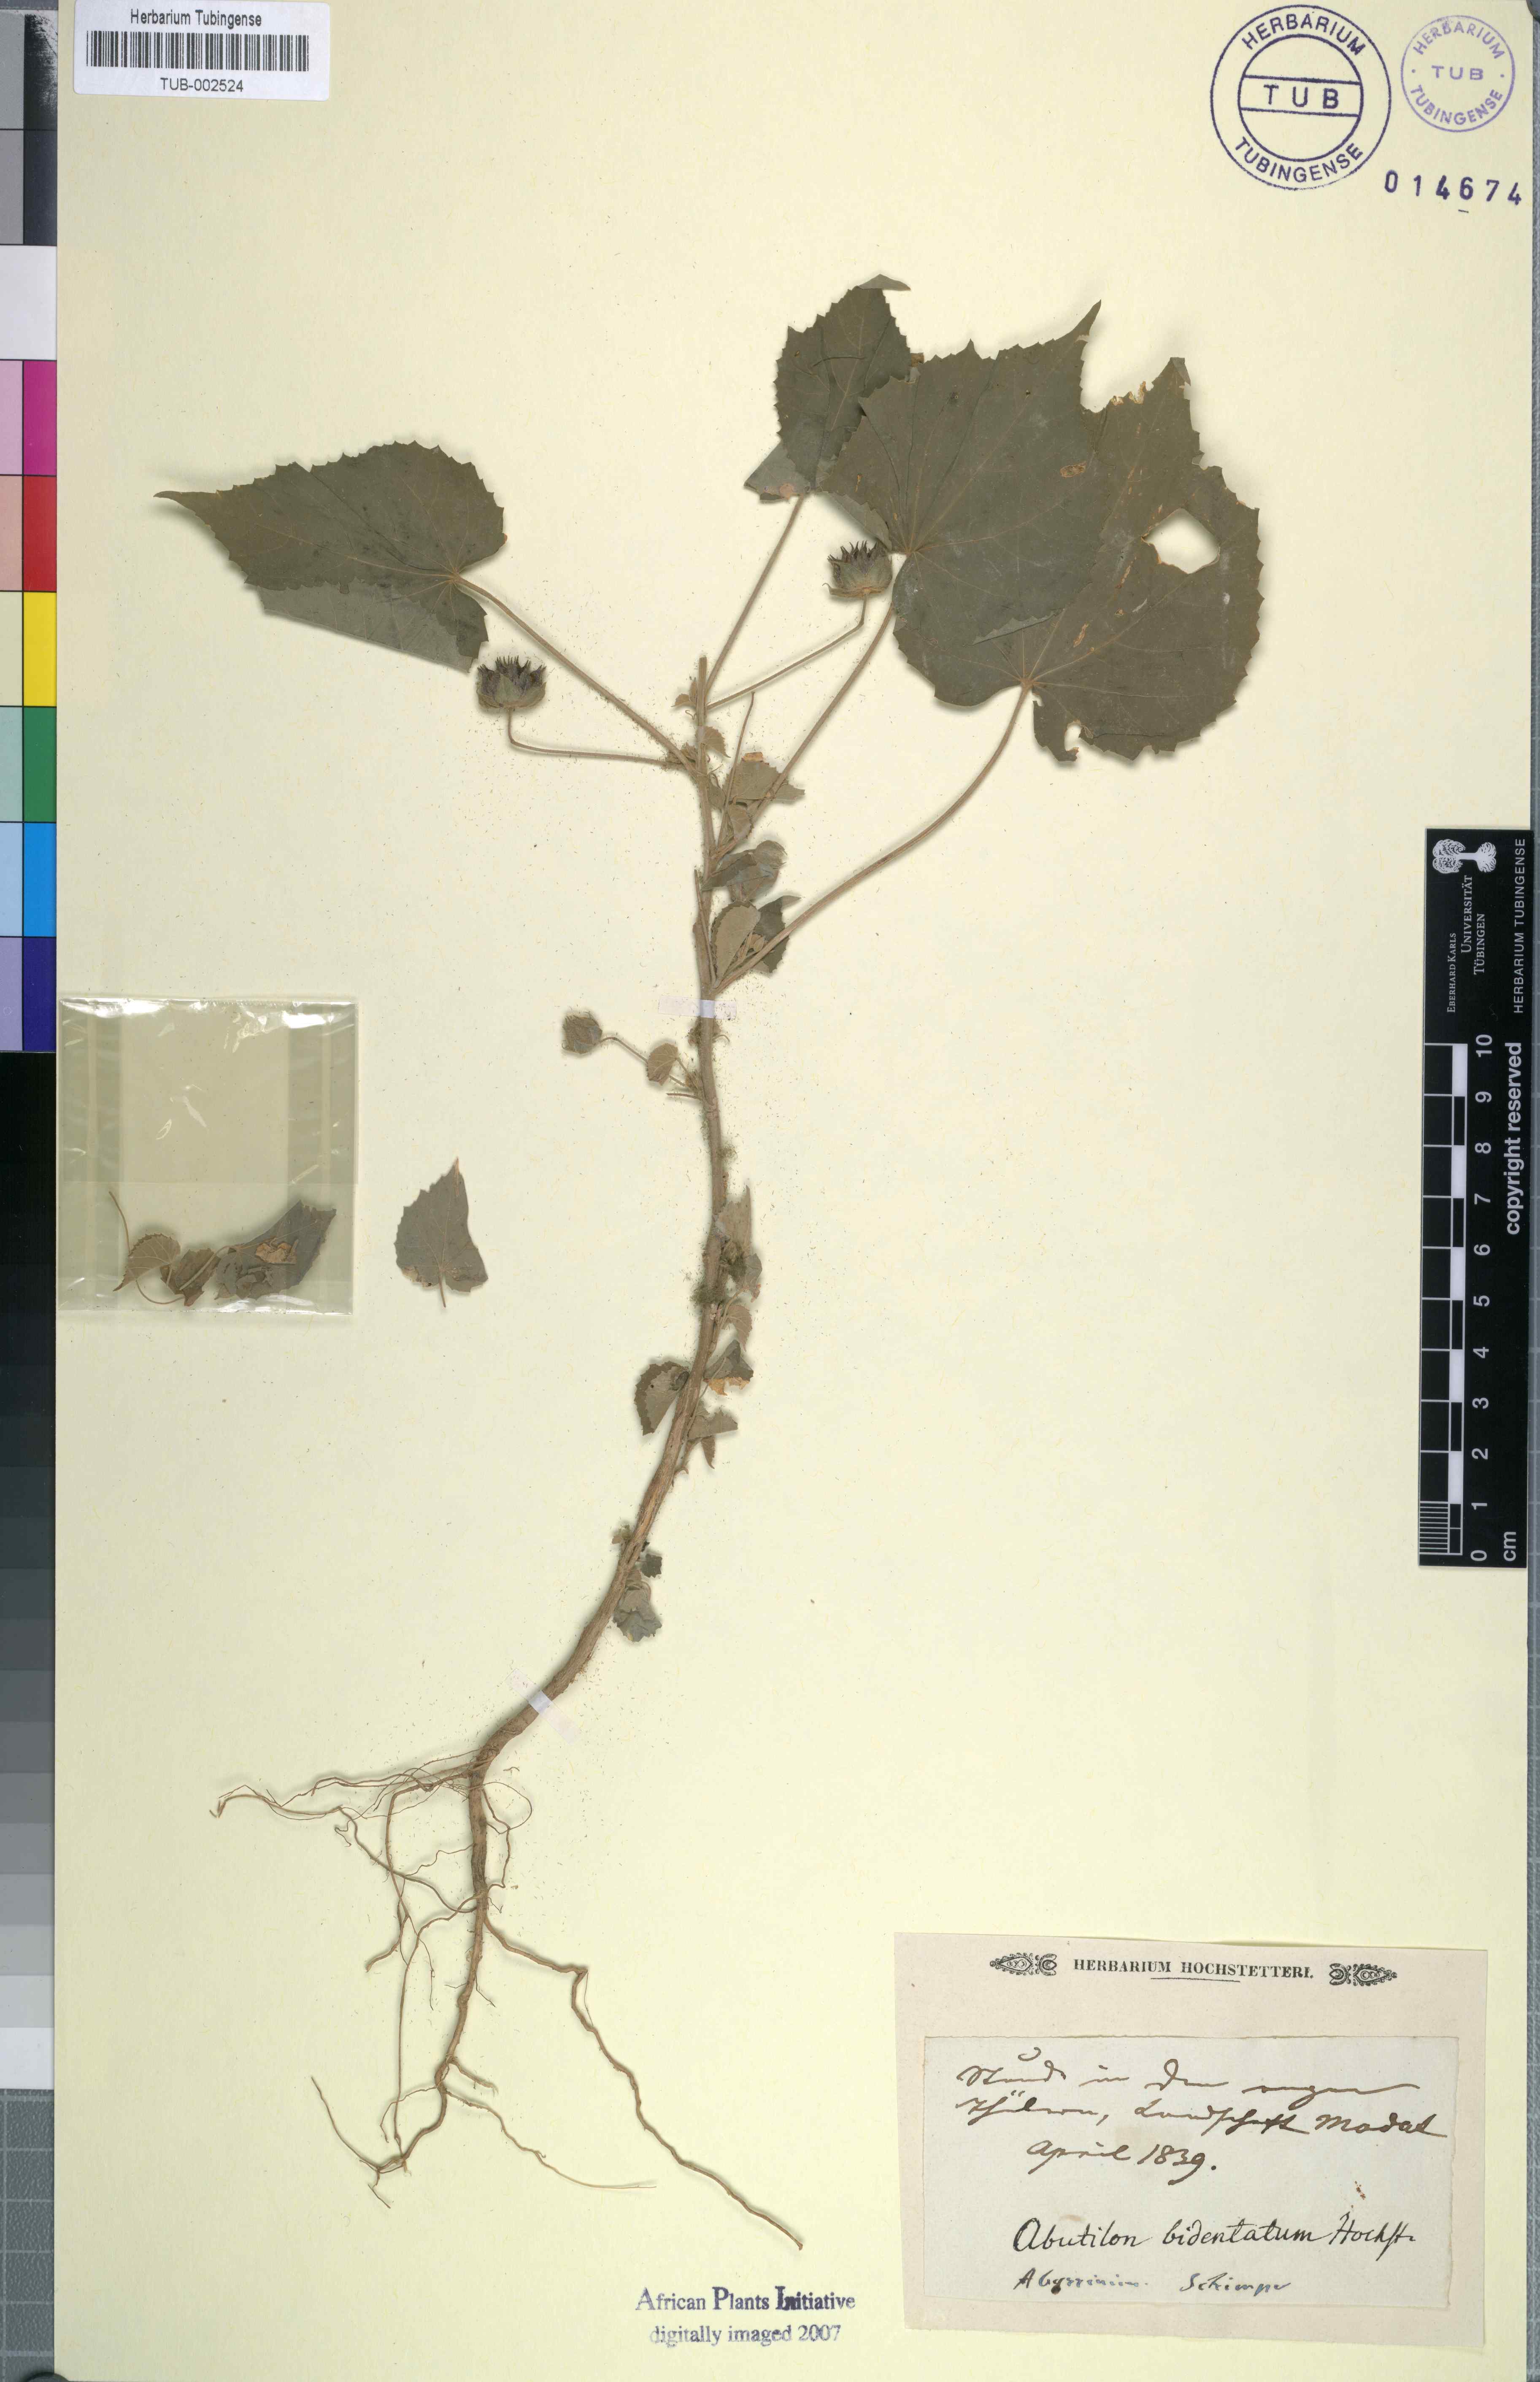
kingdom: Plantae
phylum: Tracheophyta
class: Magnoliopsida
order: Malvales
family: Malvaceae
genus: Abutilon
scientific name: Abutilon bidentatum
